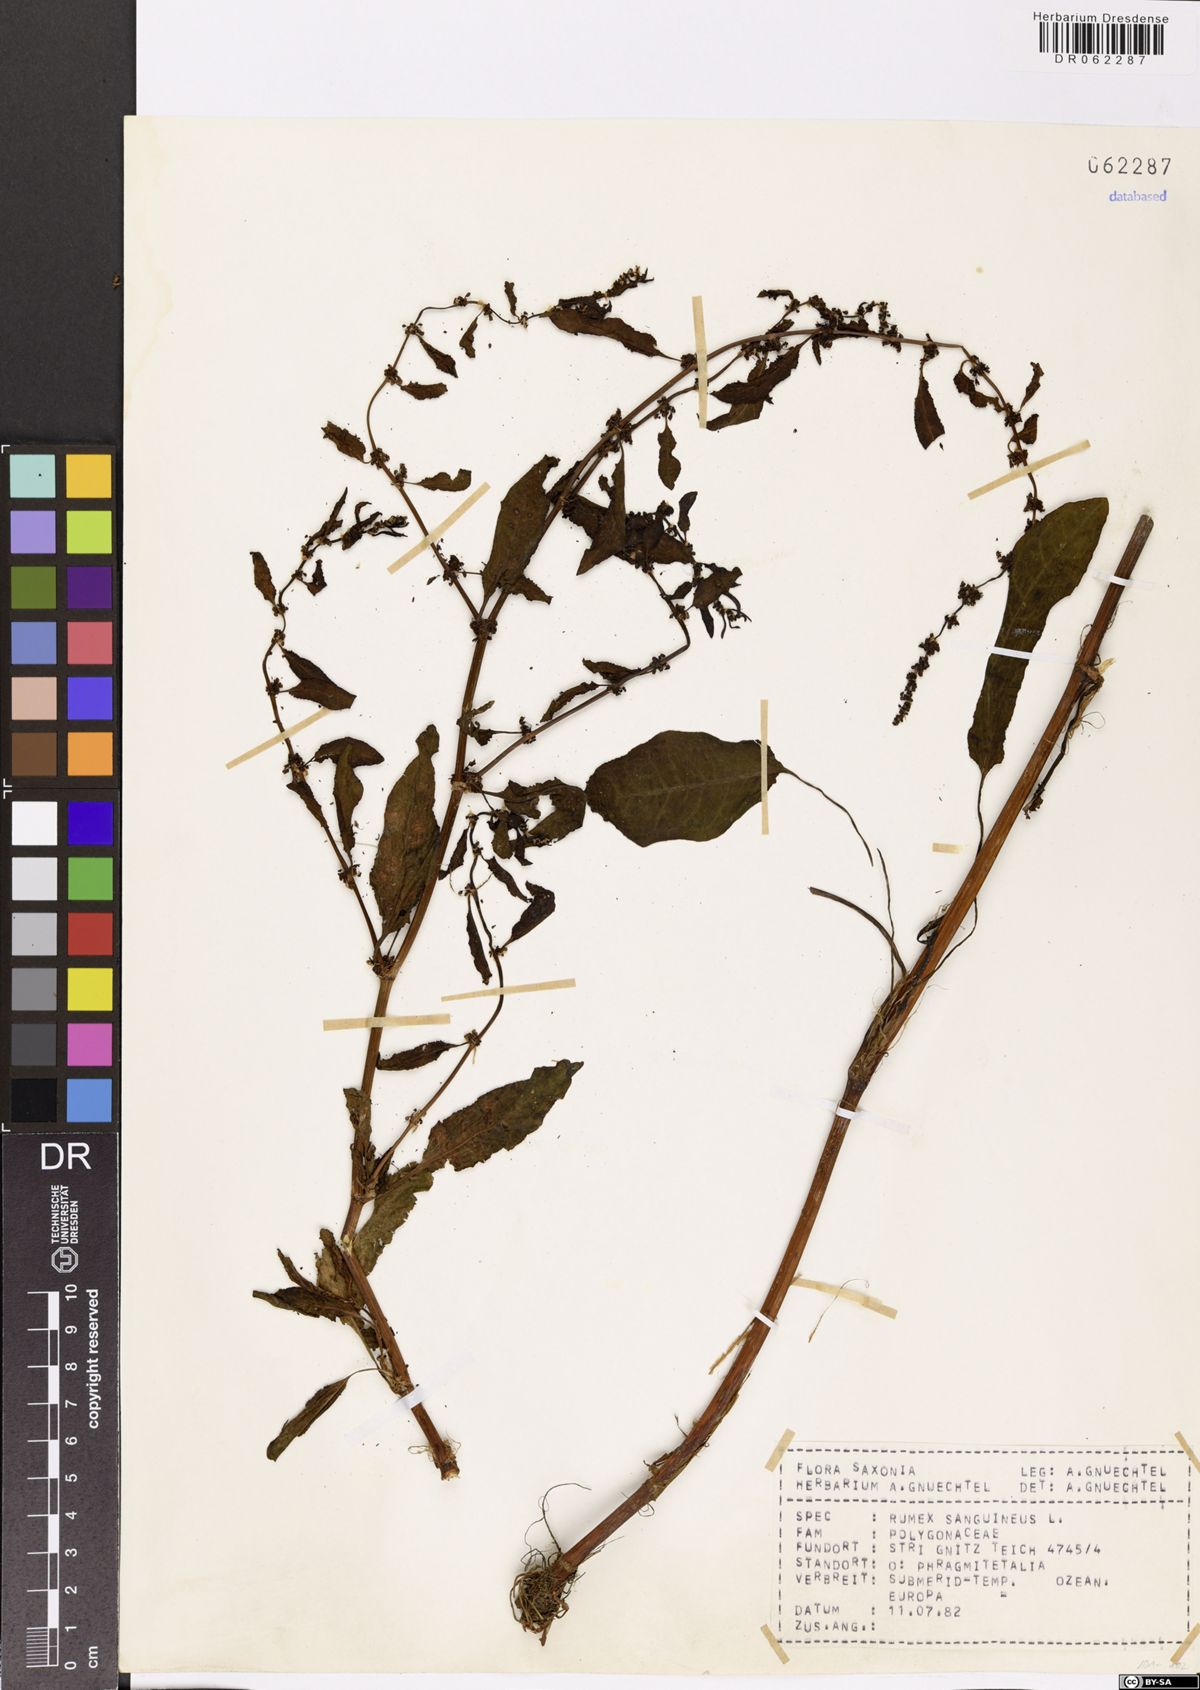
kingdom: Plantae
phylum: Tracheophyta
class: Magnoliopsida
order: Caryophyllales
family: Polygonaceae
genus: Rumex
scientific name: Rumex sanguineus
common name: Wood dock
